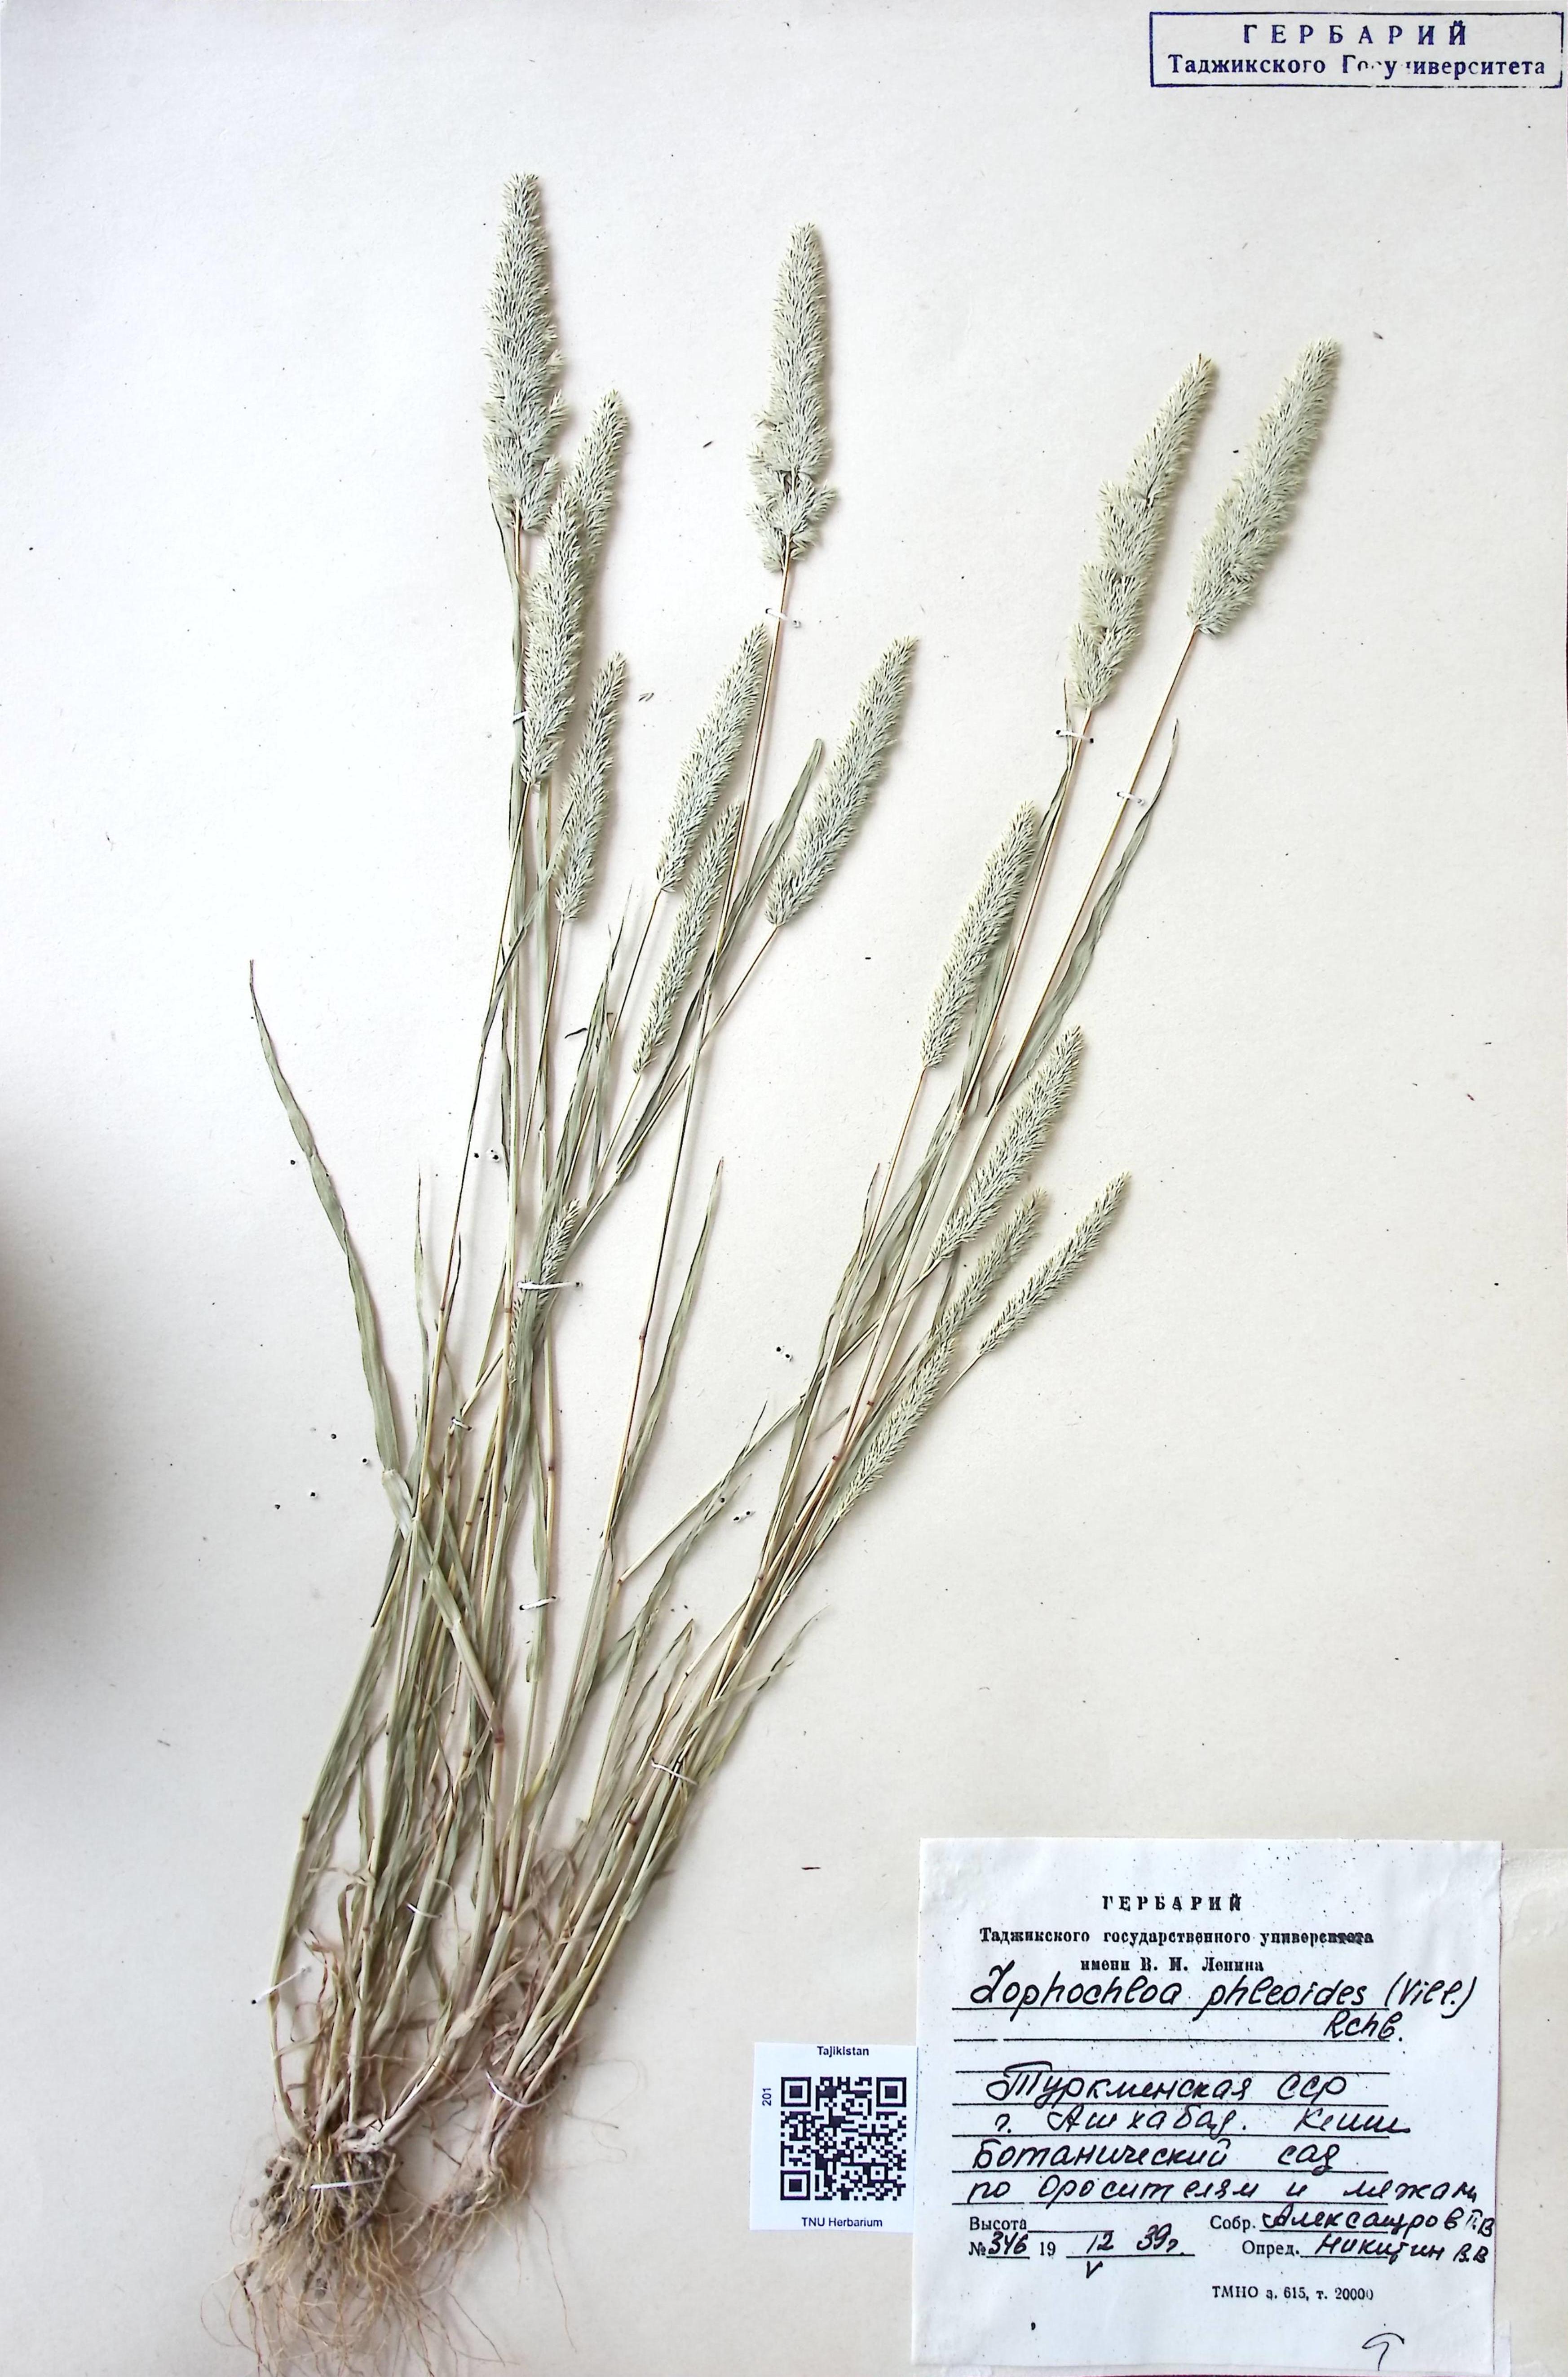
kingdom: Plantae
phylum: Tracheophyta
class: Liliopsida
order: Poales
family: Poaceae
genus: Rostraria
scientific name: Rostraria cristata
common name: Mediterranean hair-grass
